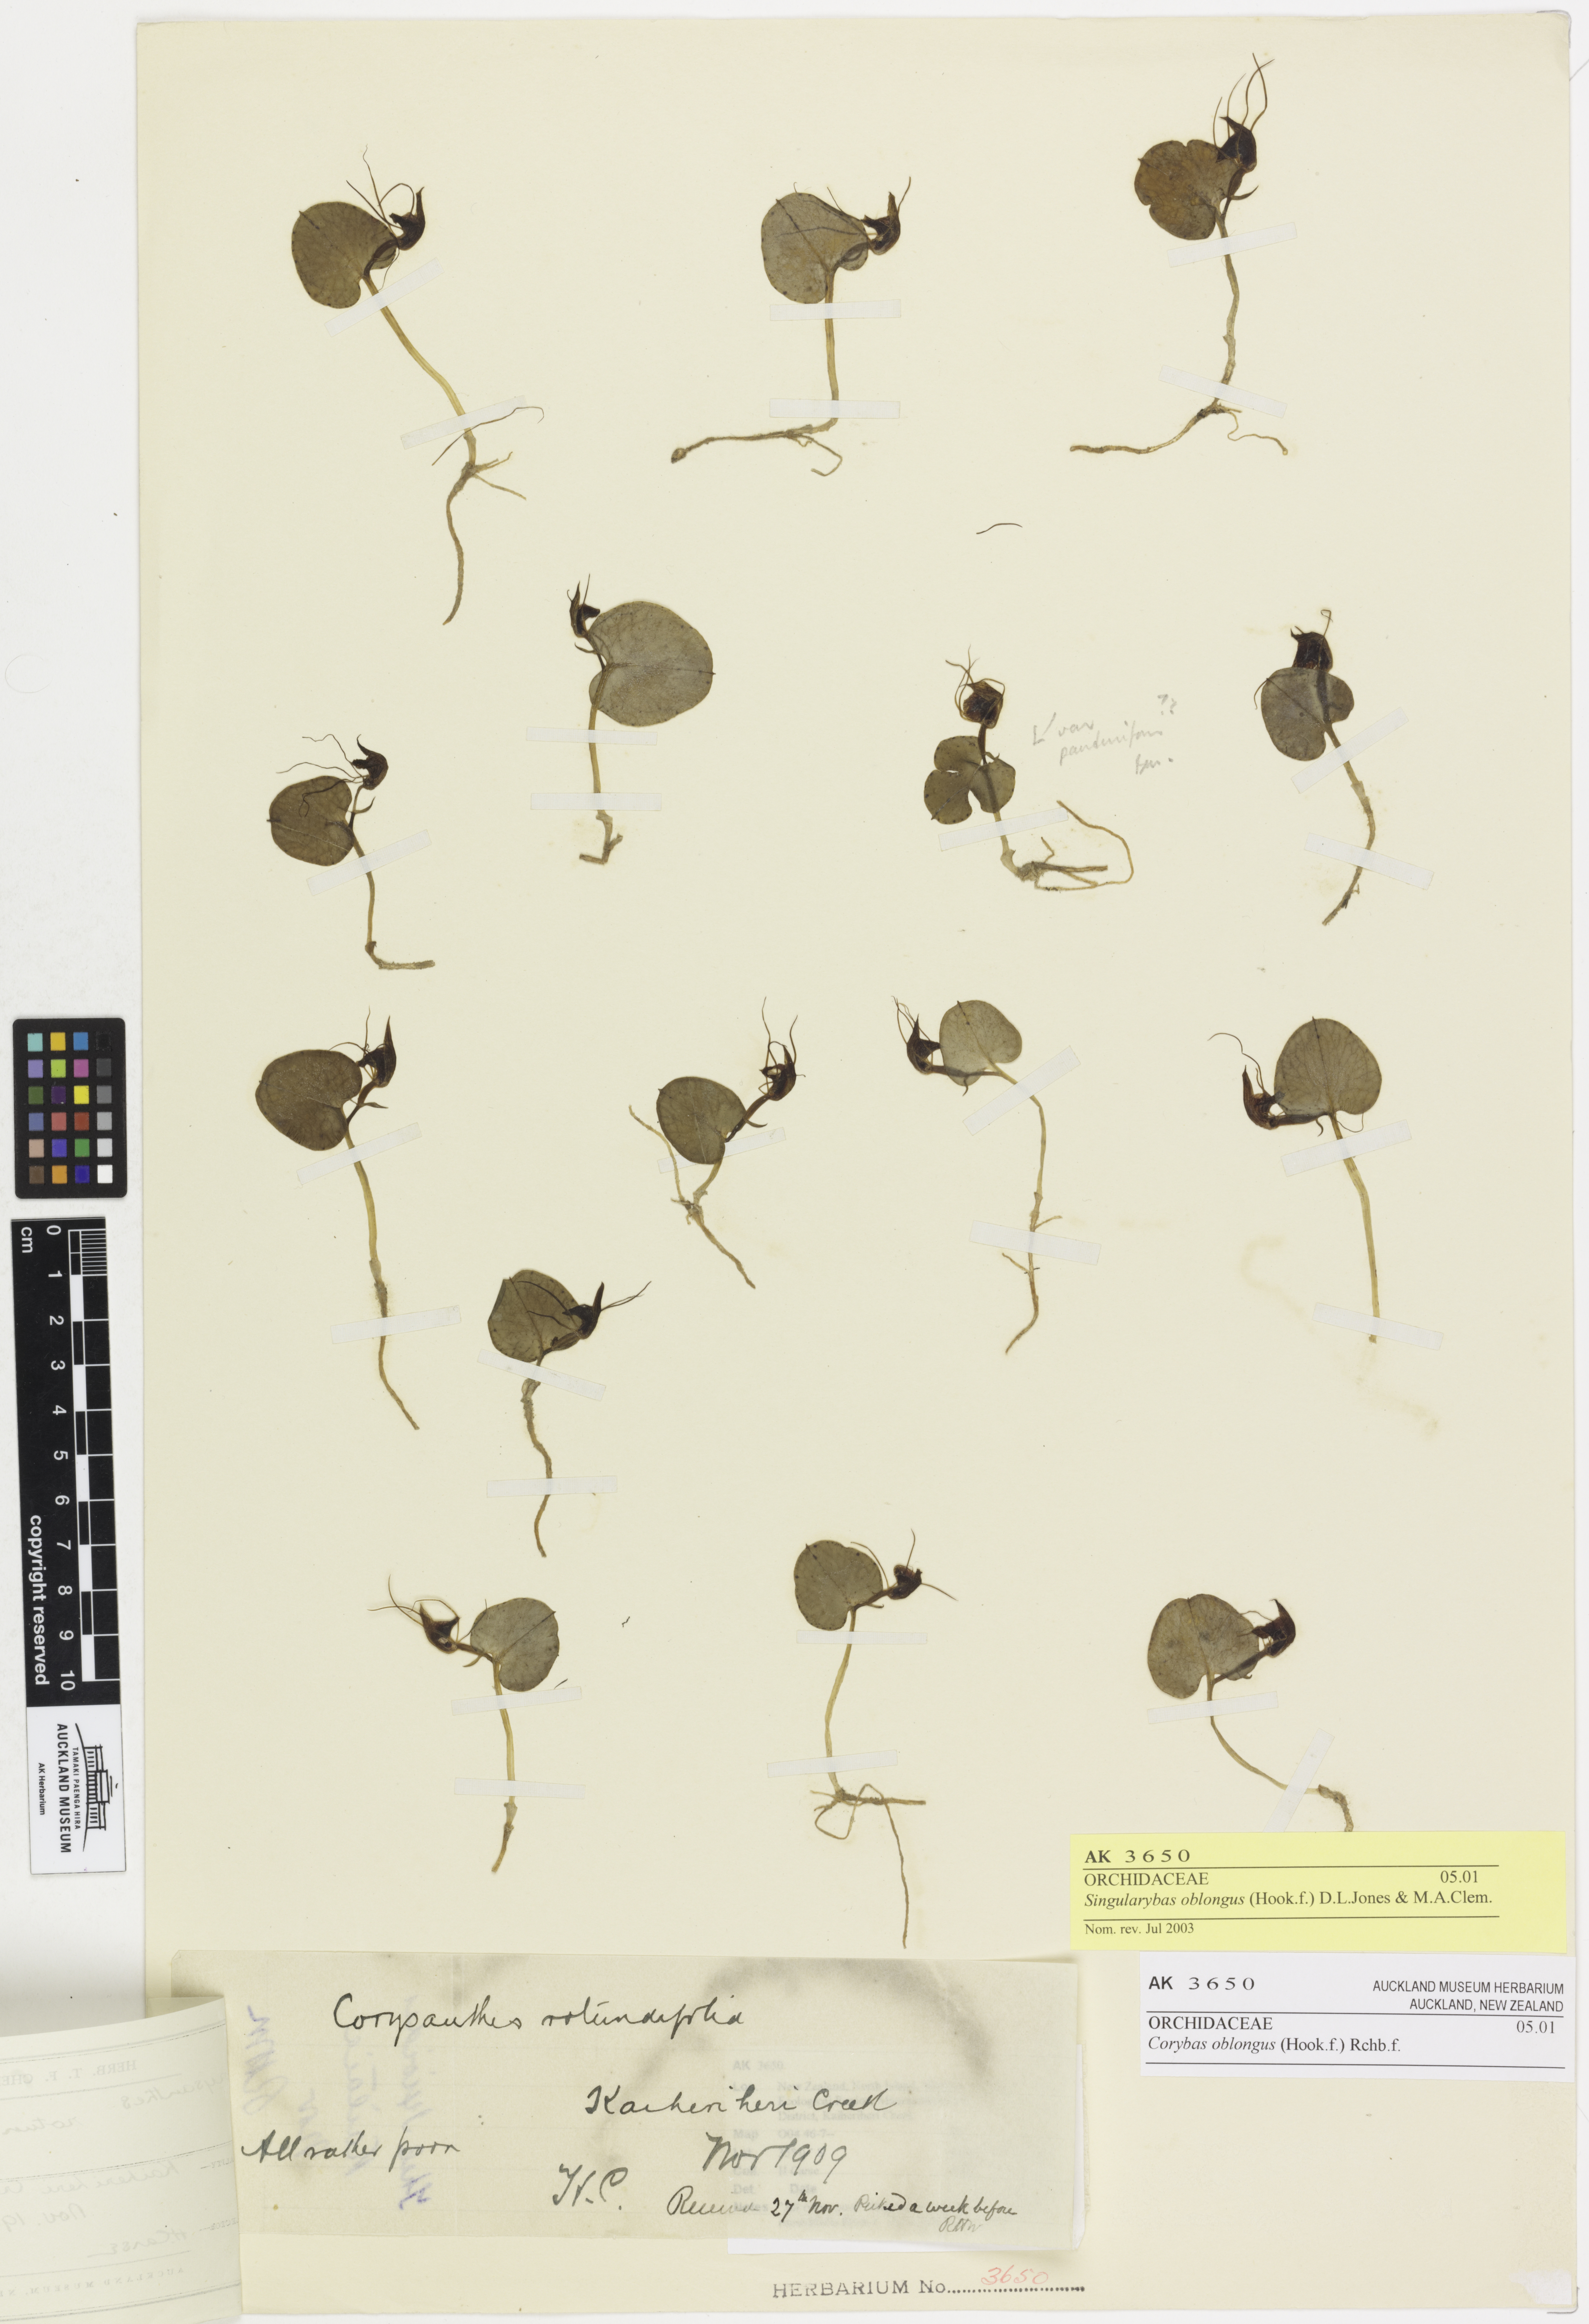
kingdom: Plantae
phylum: Tracheophyta
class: Liliopsida
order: Asparagales
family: Orchidaceae
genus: Corybas
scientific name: Corybas oblongus
